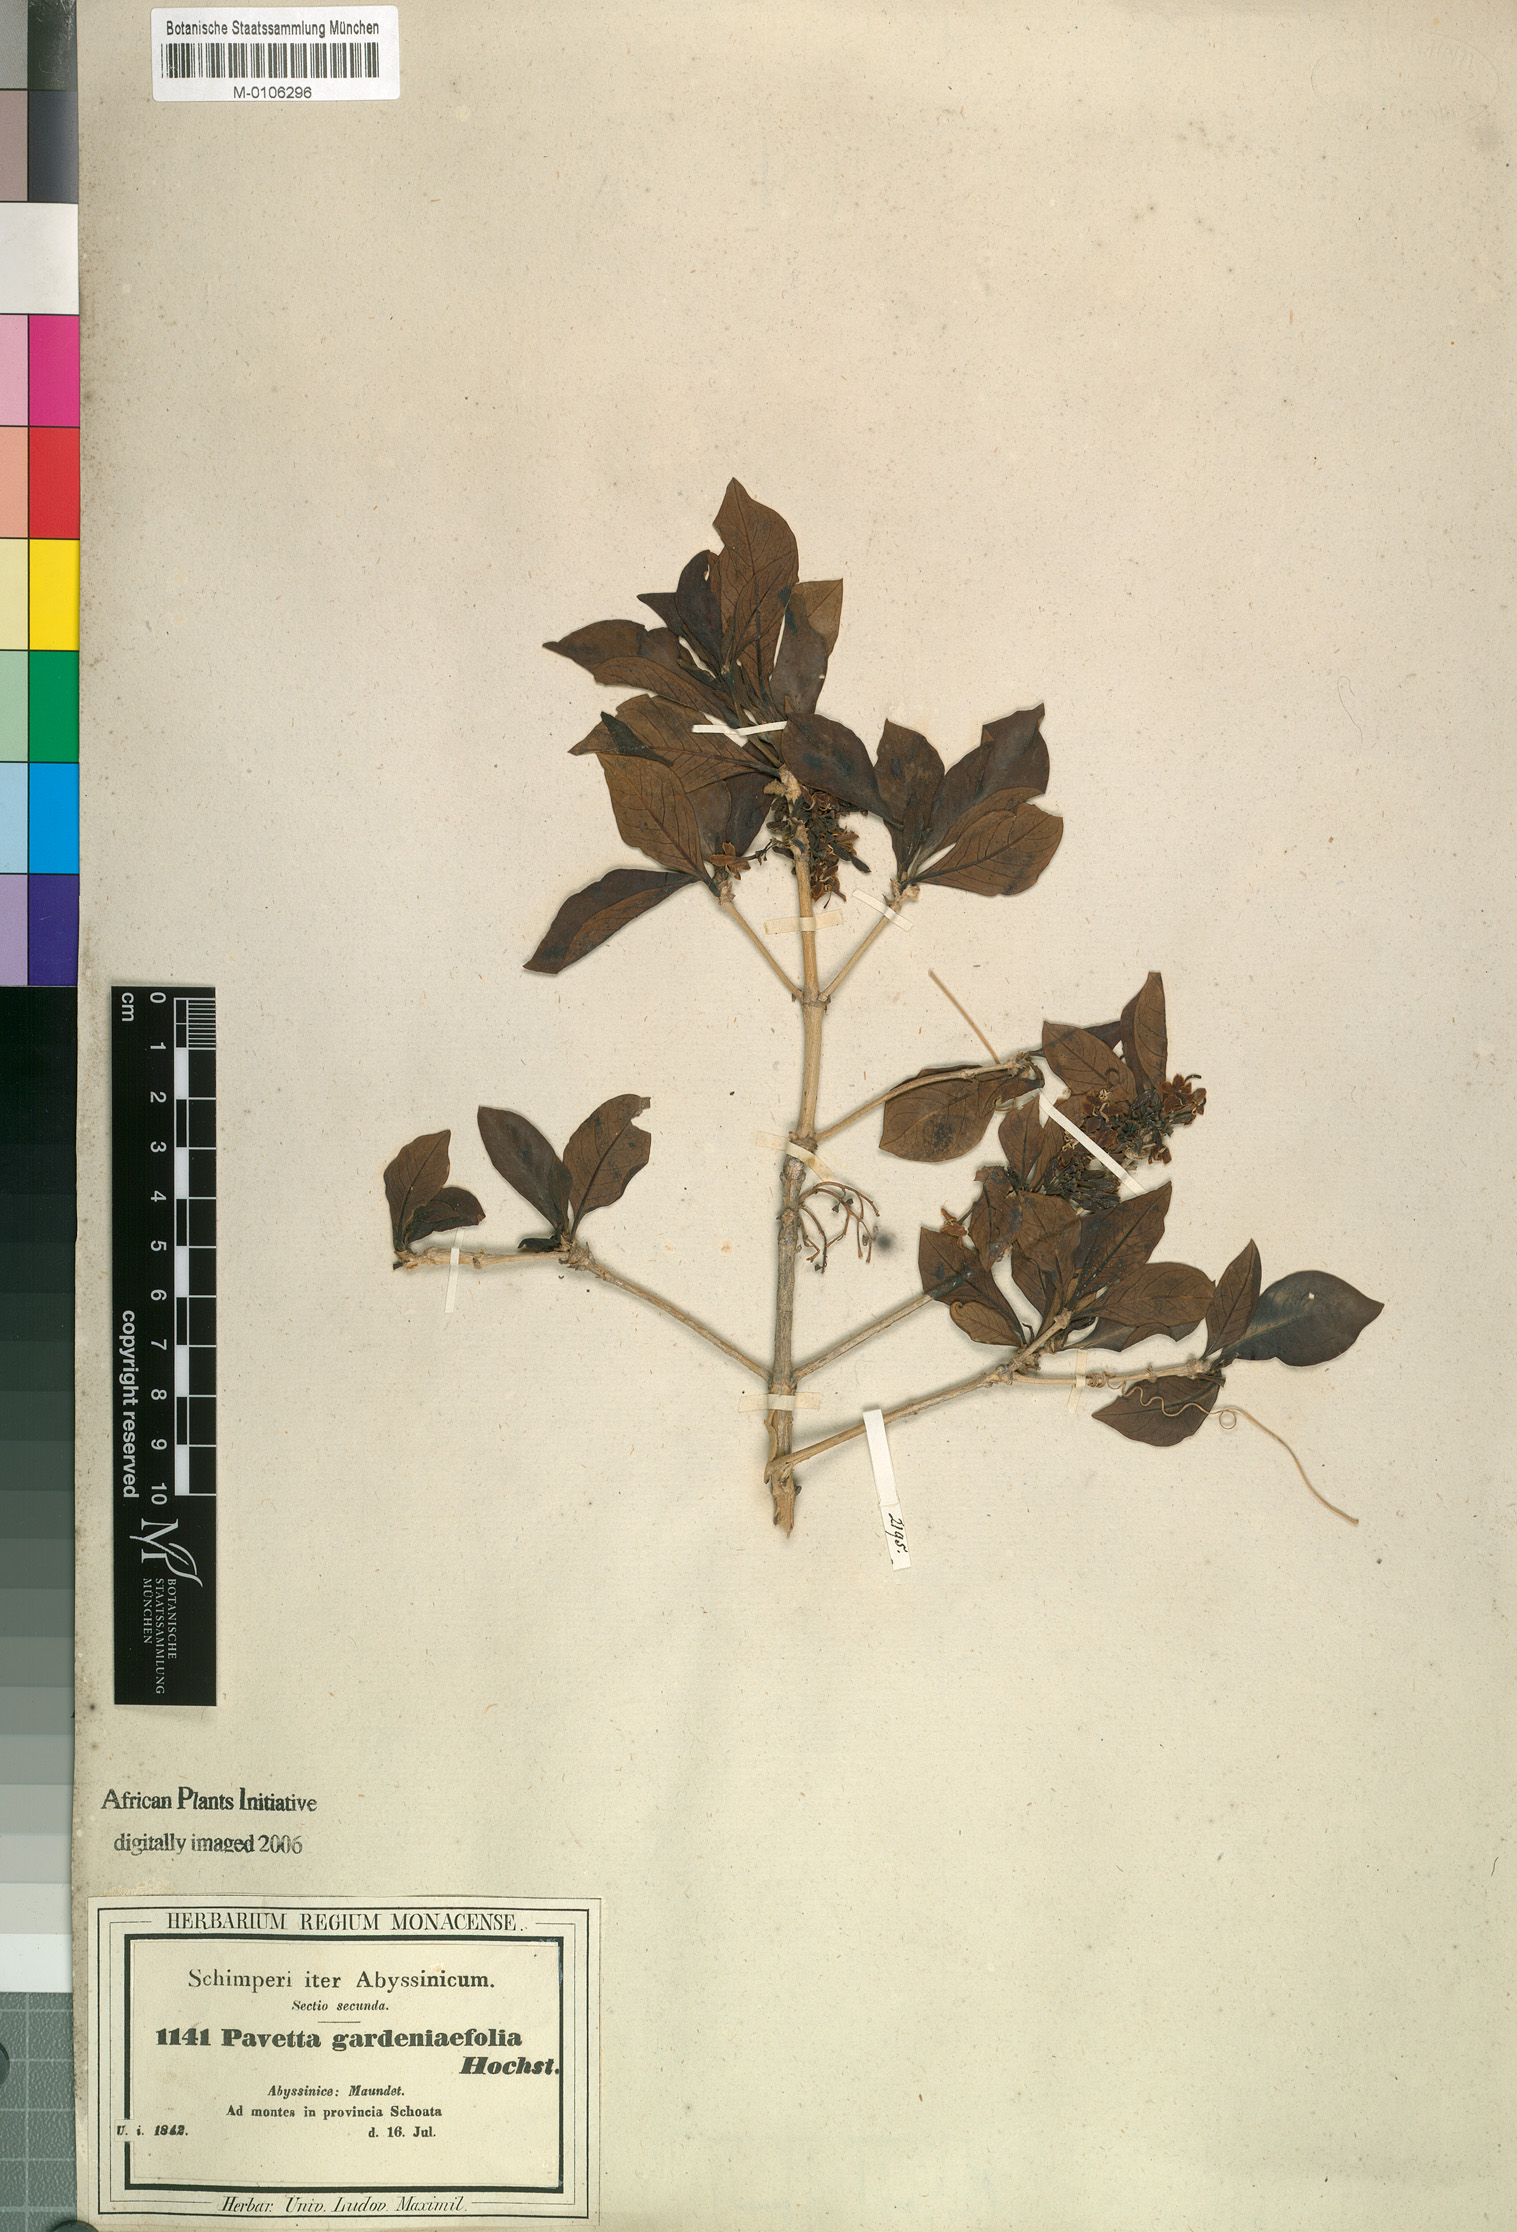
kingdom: Plantae
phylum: Tracheophyta
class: Magnoliopsida
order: Gentianales
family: Rubiaceae
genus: Pavetta
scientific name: Pavetta gardeniifolia
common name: Common brides-bush
